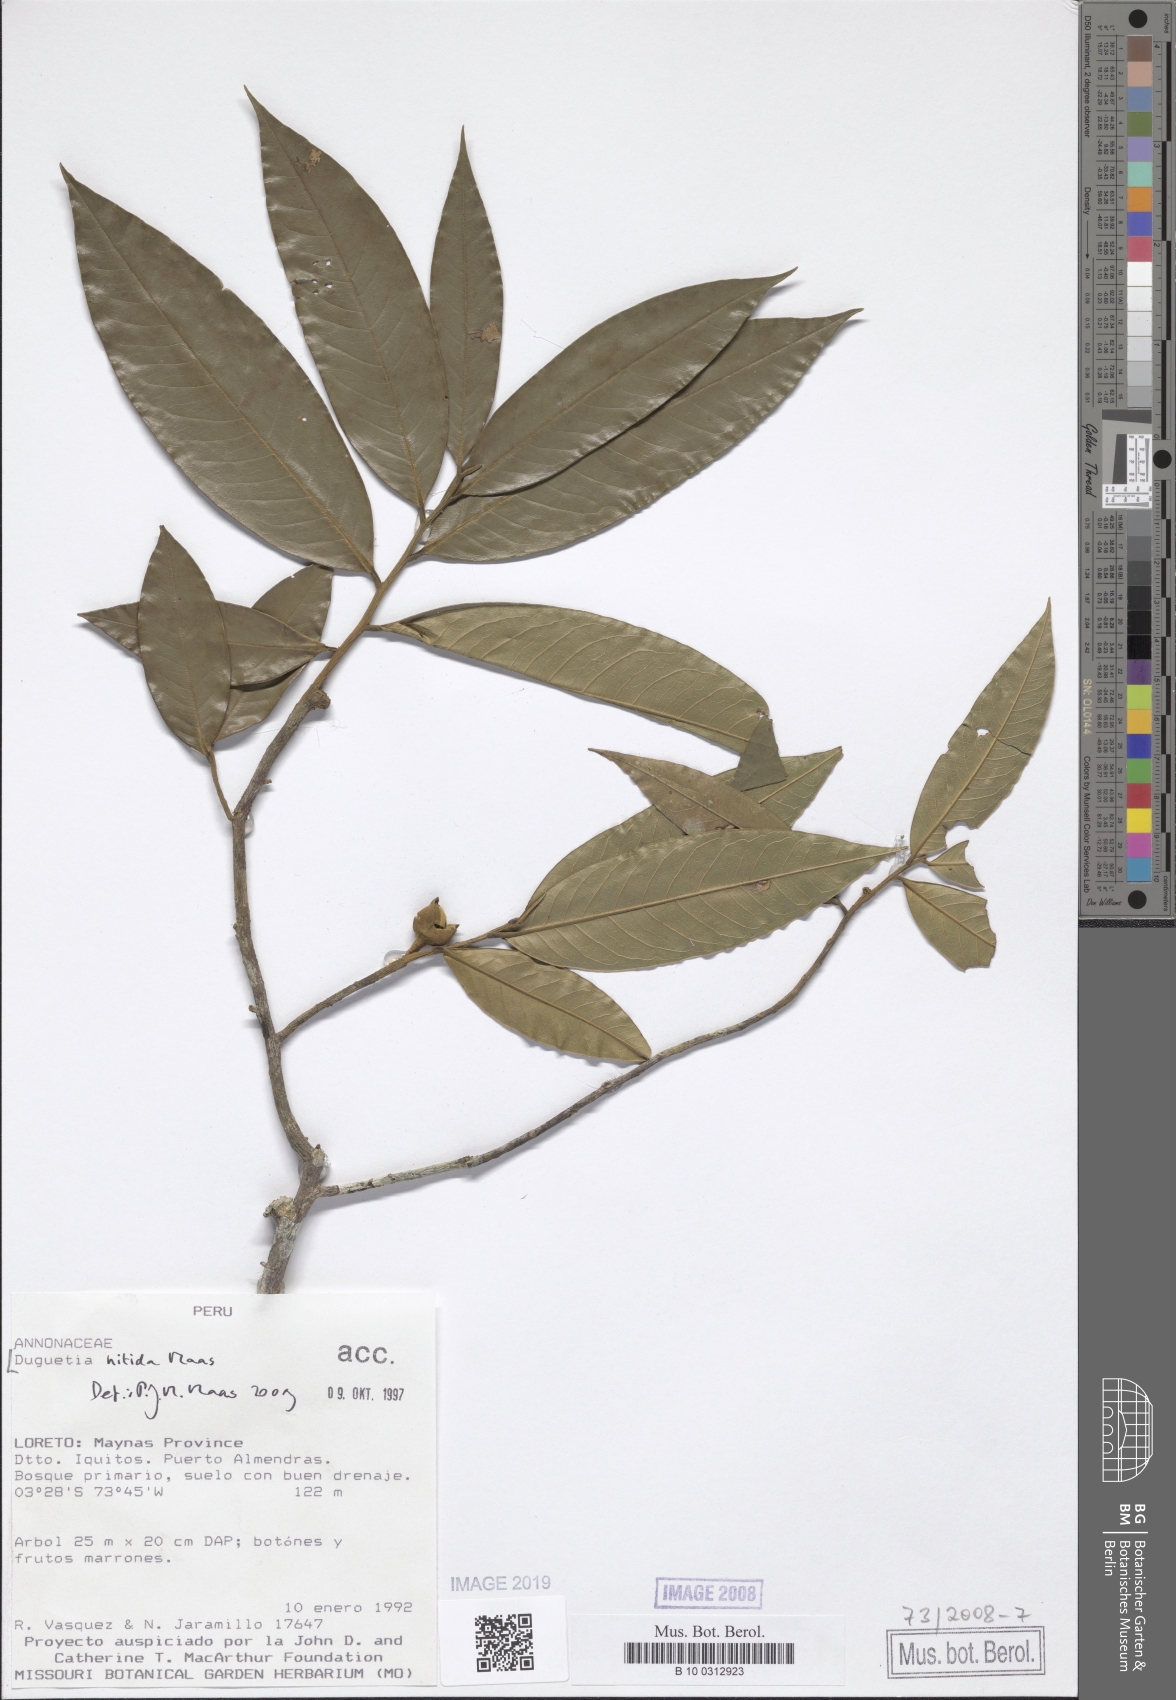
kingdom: Plantae
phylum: Tracheophyta
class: Magnoliopsida
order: Magnoliales
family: Annonaceae
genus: Duguetia
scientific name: Duguetia nitida
